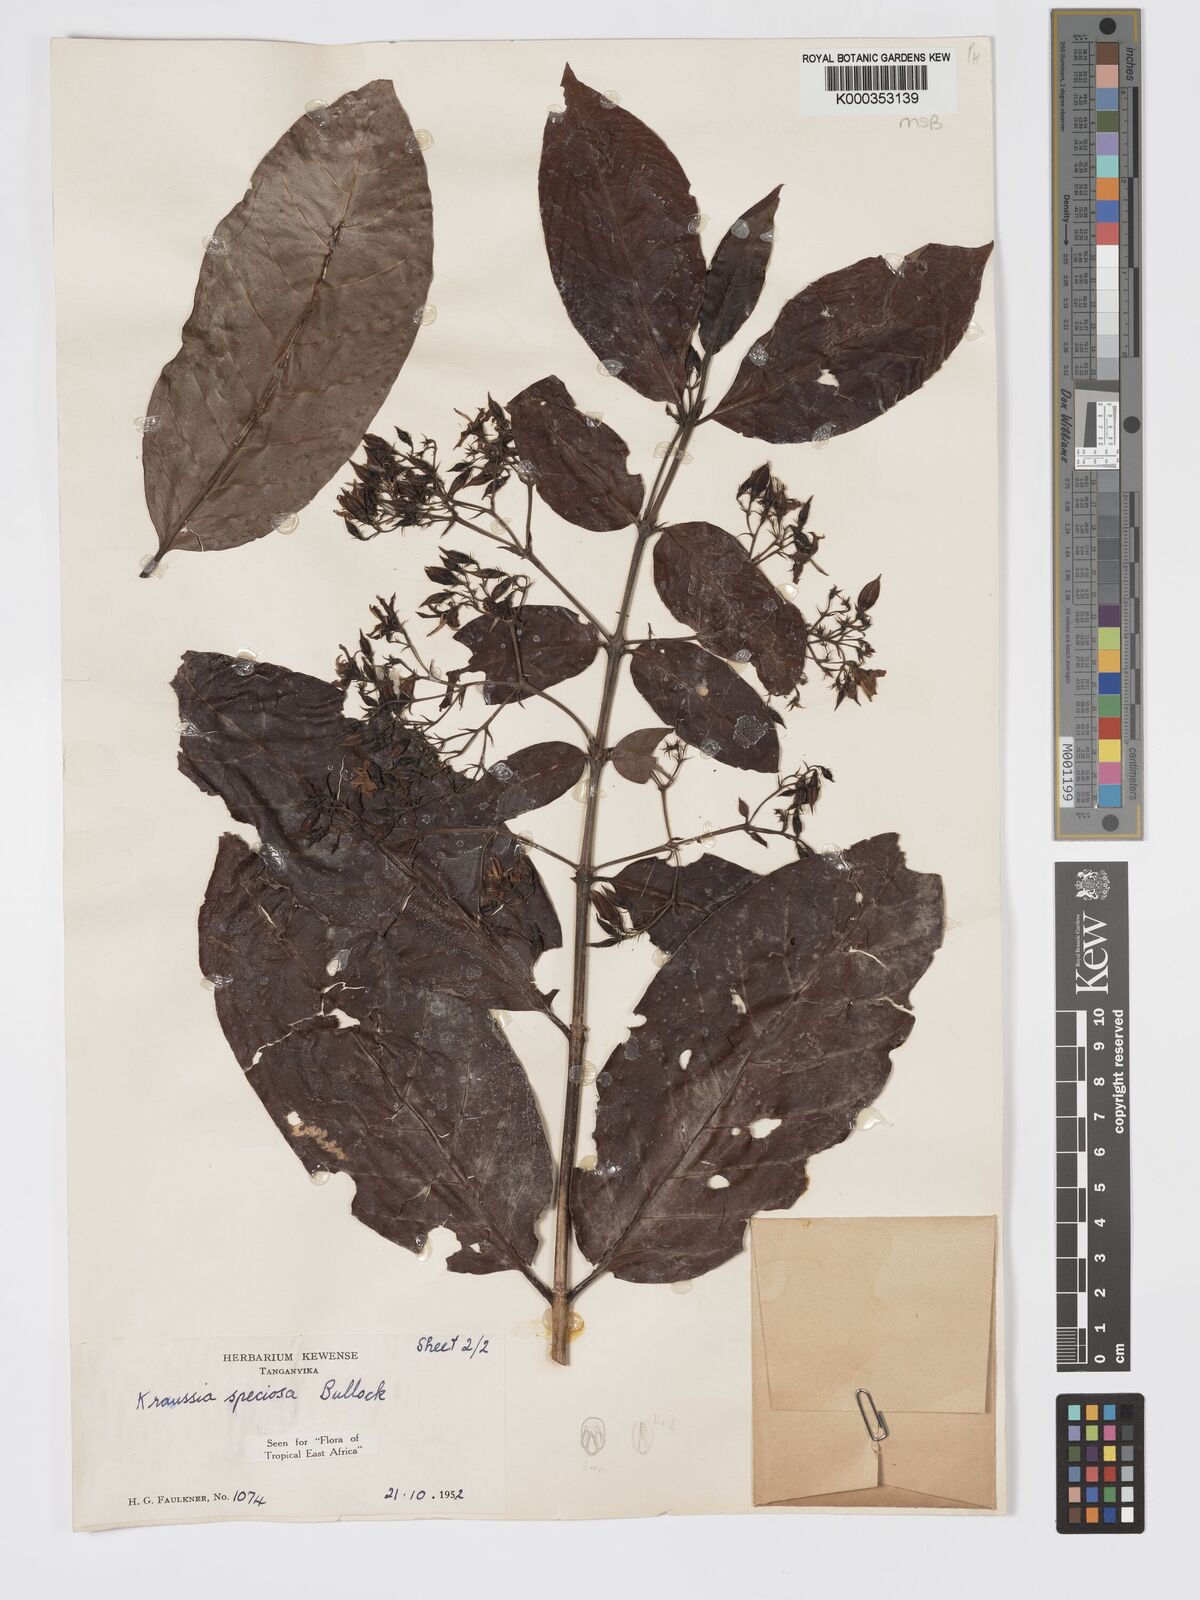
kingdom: Plantae
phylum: Tracheophyta
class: Magnoliopsida
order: Gentianales
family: Rubiaceae
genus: Kraussia
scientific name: Kraussia speciosa
